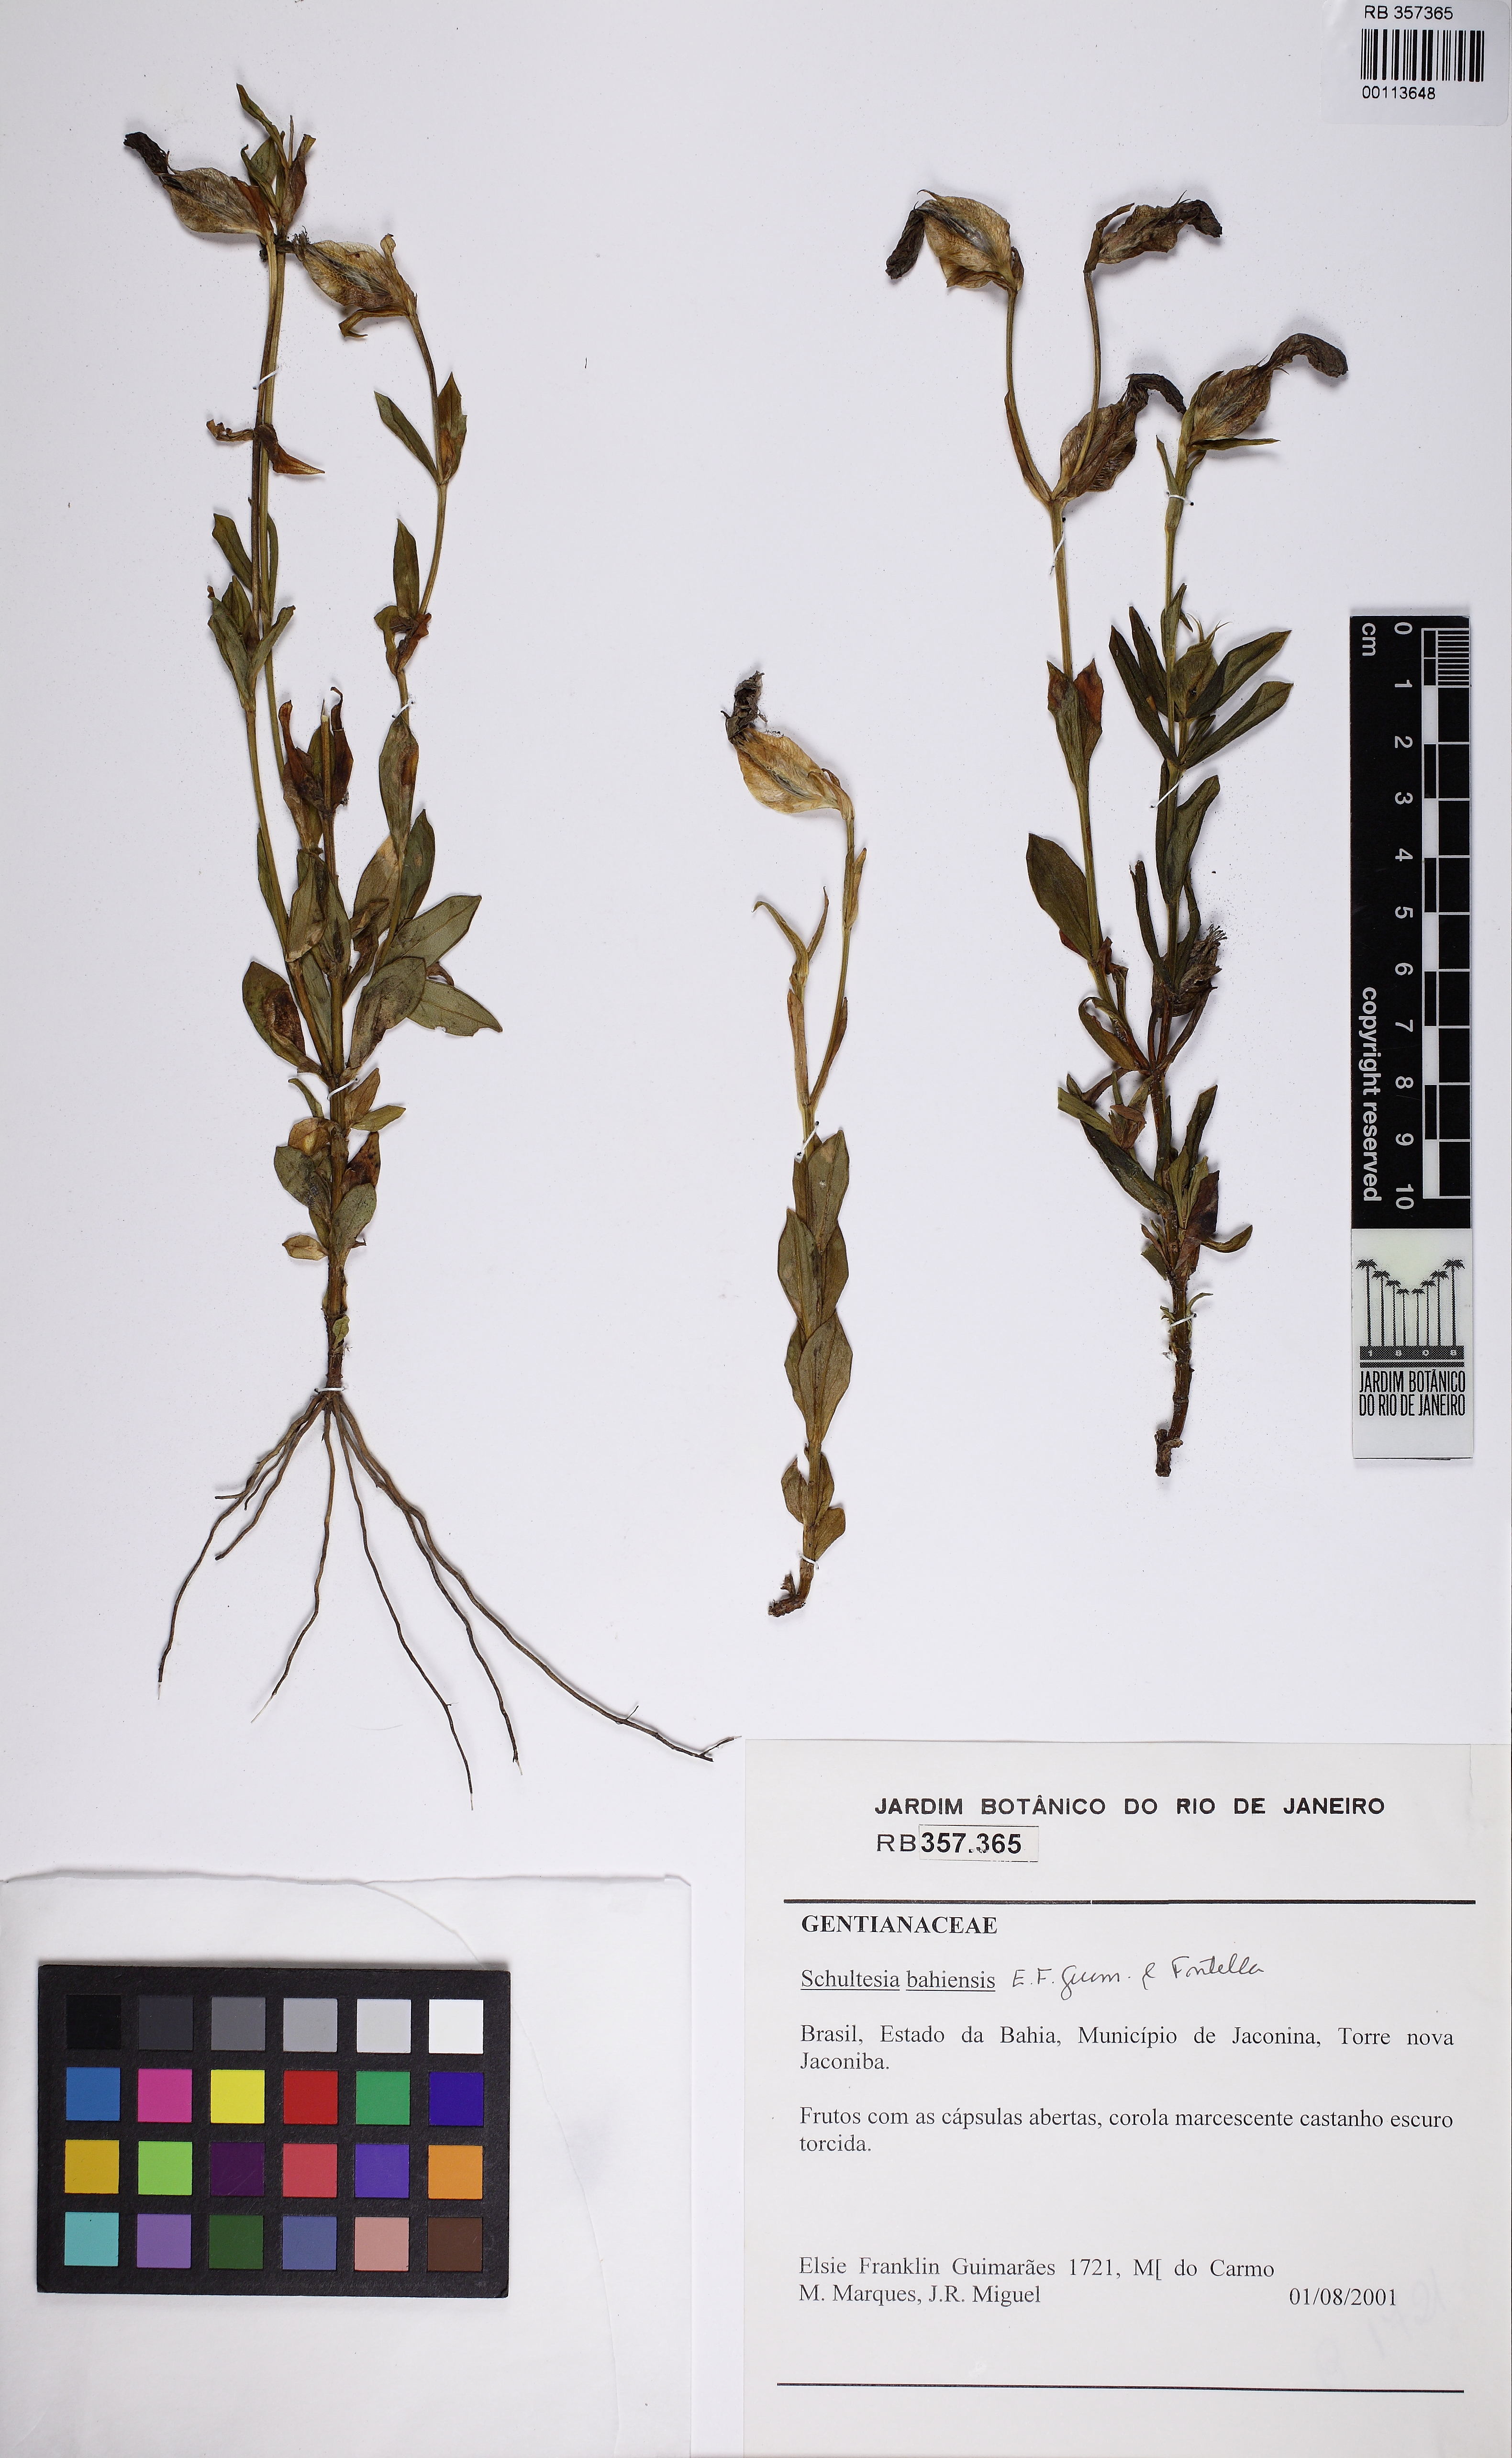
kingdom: Plantae
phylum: Tracheophyta
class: Magnoliopsida
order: Gentianales
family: Gentianaceae
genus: Schultesia
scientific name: Schultesia bahiensis
